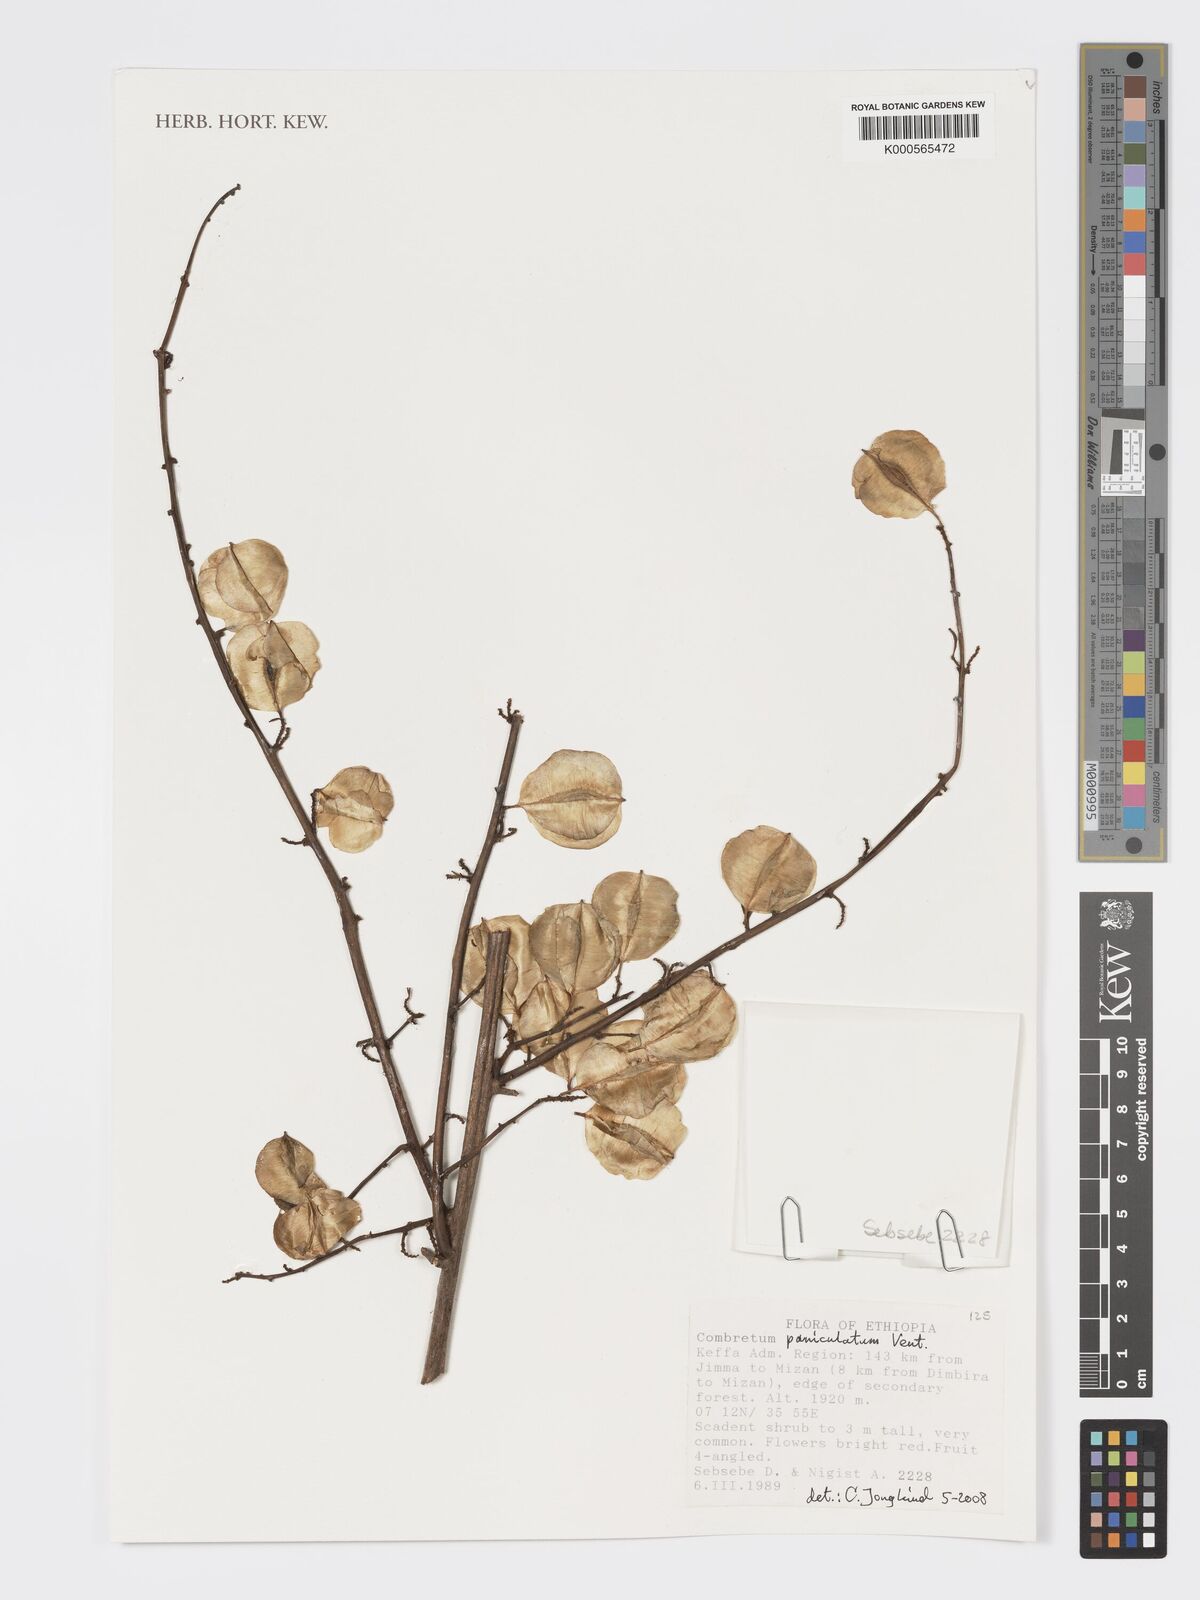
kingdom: Plantae
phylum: Tracheophyta
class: Magnoliopsida
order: Myrtales
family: Combretaceae
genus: Combretum
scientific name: Combretum paniculatum
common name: Fire vine
